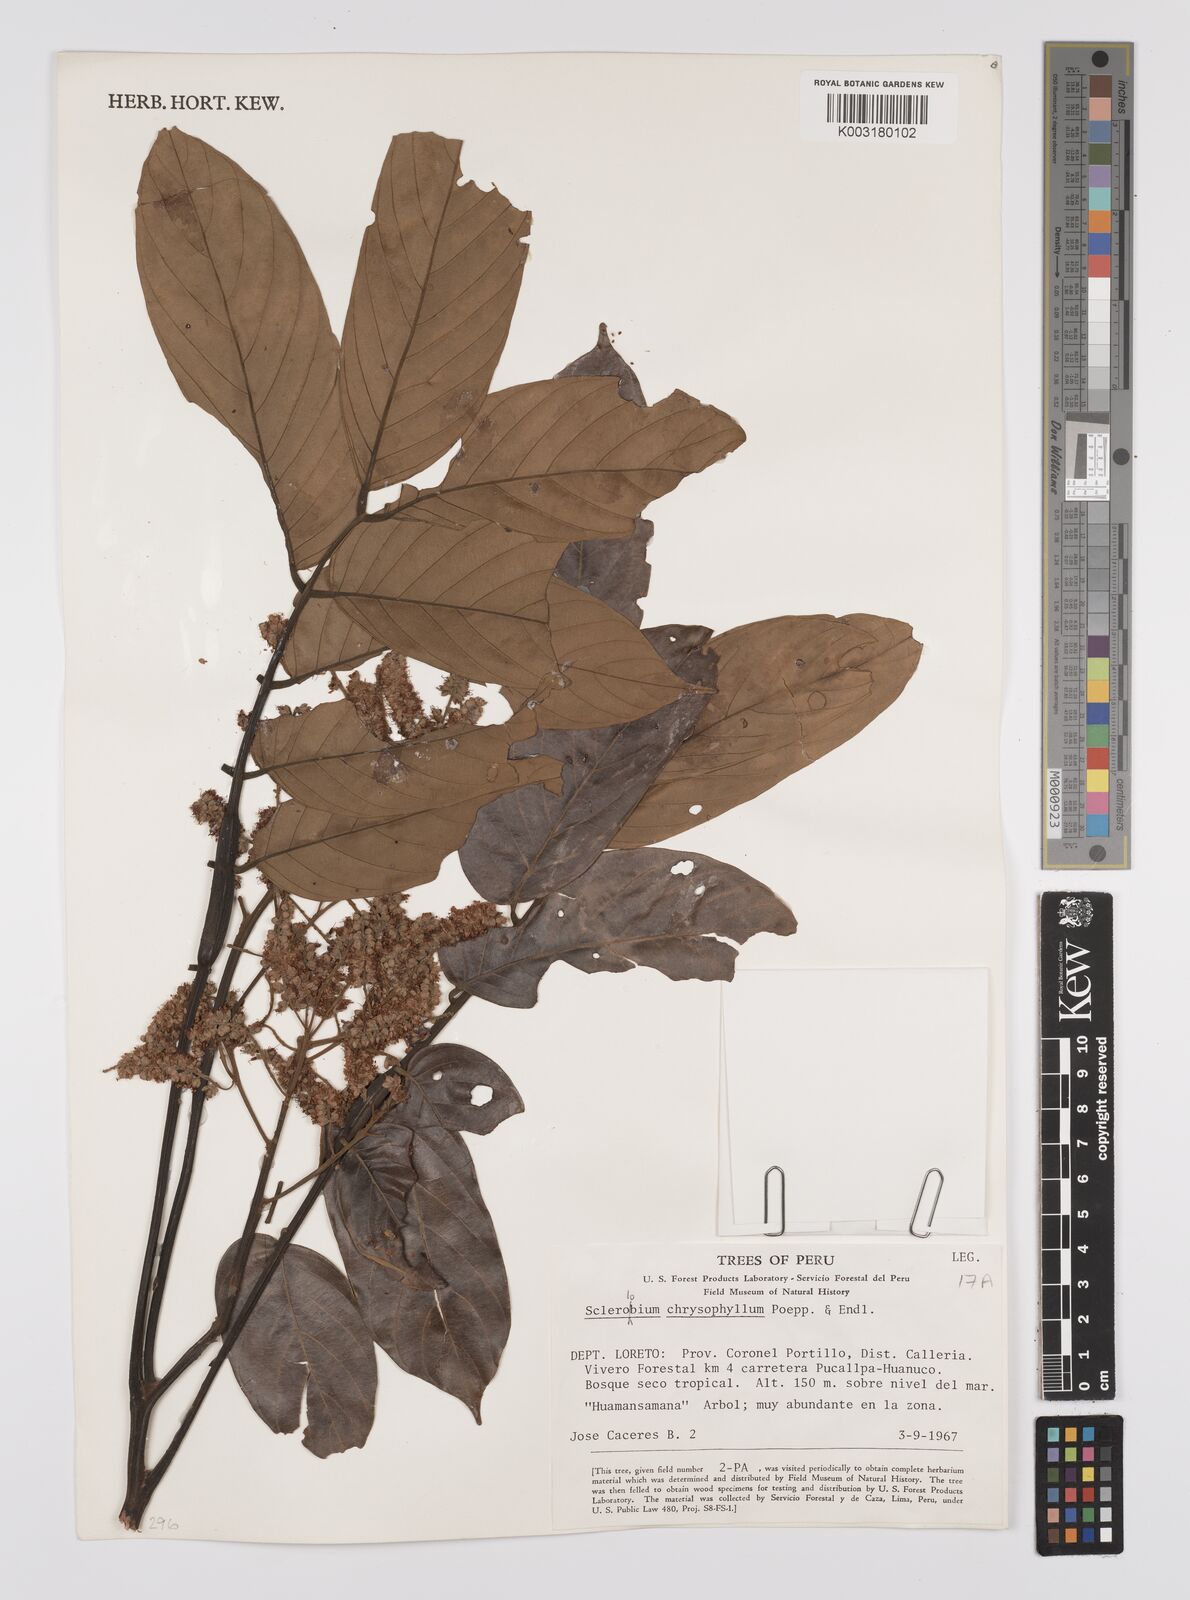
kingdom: Plantae
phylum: Tracheophyta
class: Magnoliopsida
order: Fabales
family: Fabaceae
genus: Tachigali
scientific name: Tachigali chrysophylla
